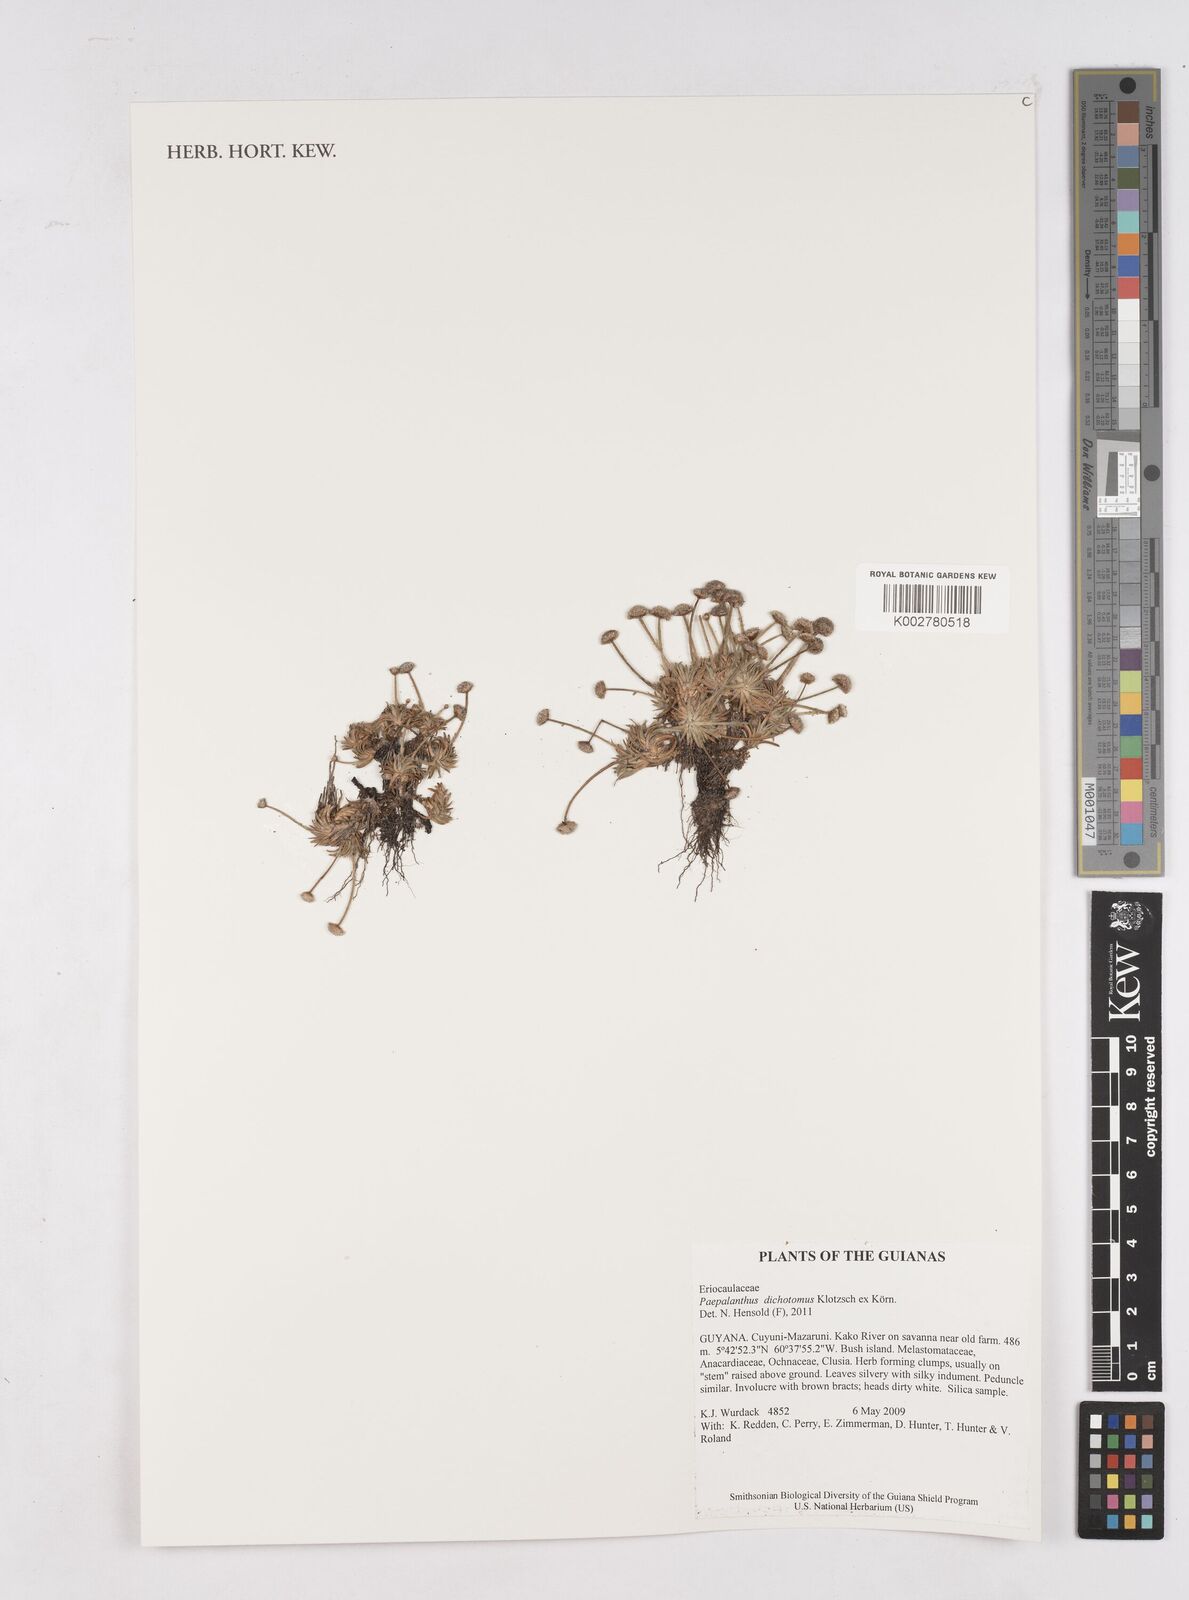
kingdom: Plantae
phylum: Tracheophyta
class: Liliopsida
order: Poales
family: Eriocaulaceae
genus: Paepalanthus
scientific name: Paepalanthus dichotomus
